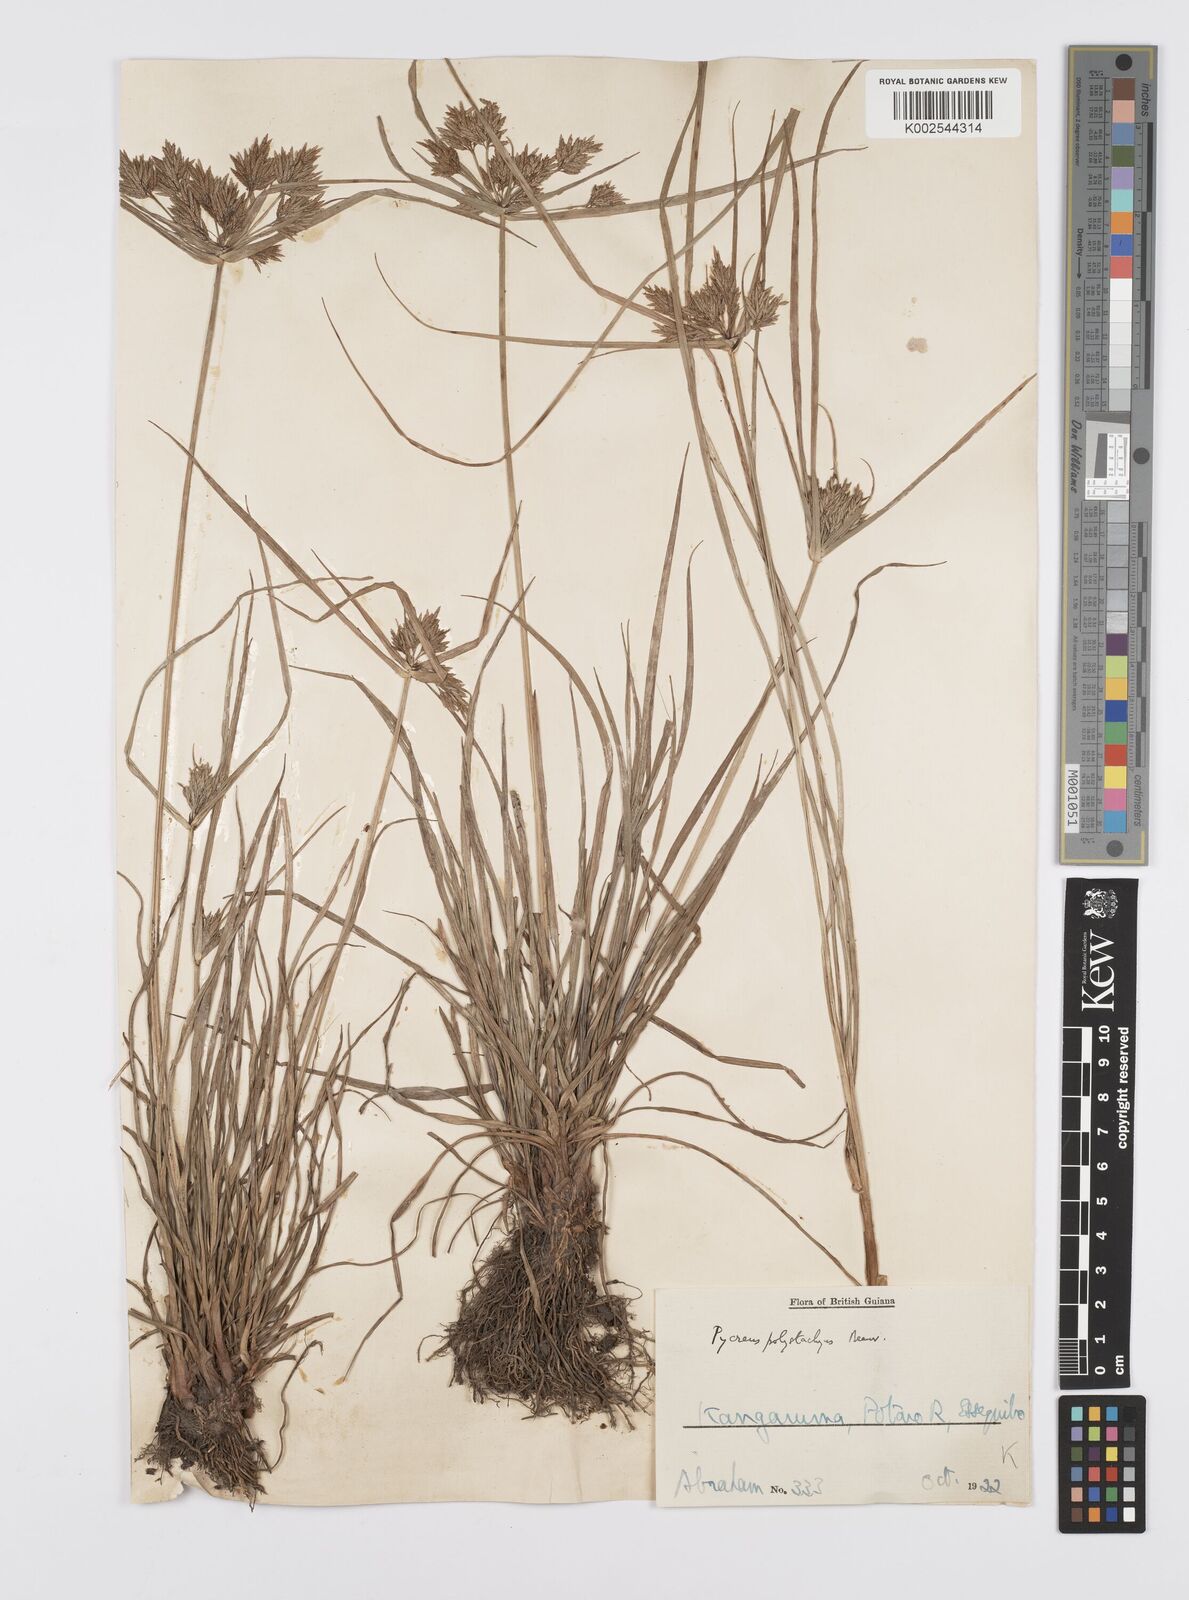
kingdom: Plantae
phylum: Tracheophyta
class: Liliopsida
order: Poales
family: Cyperaceae
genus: Cyperus
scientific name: Cyperus polystachyos
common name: Bunchy flat sedge
